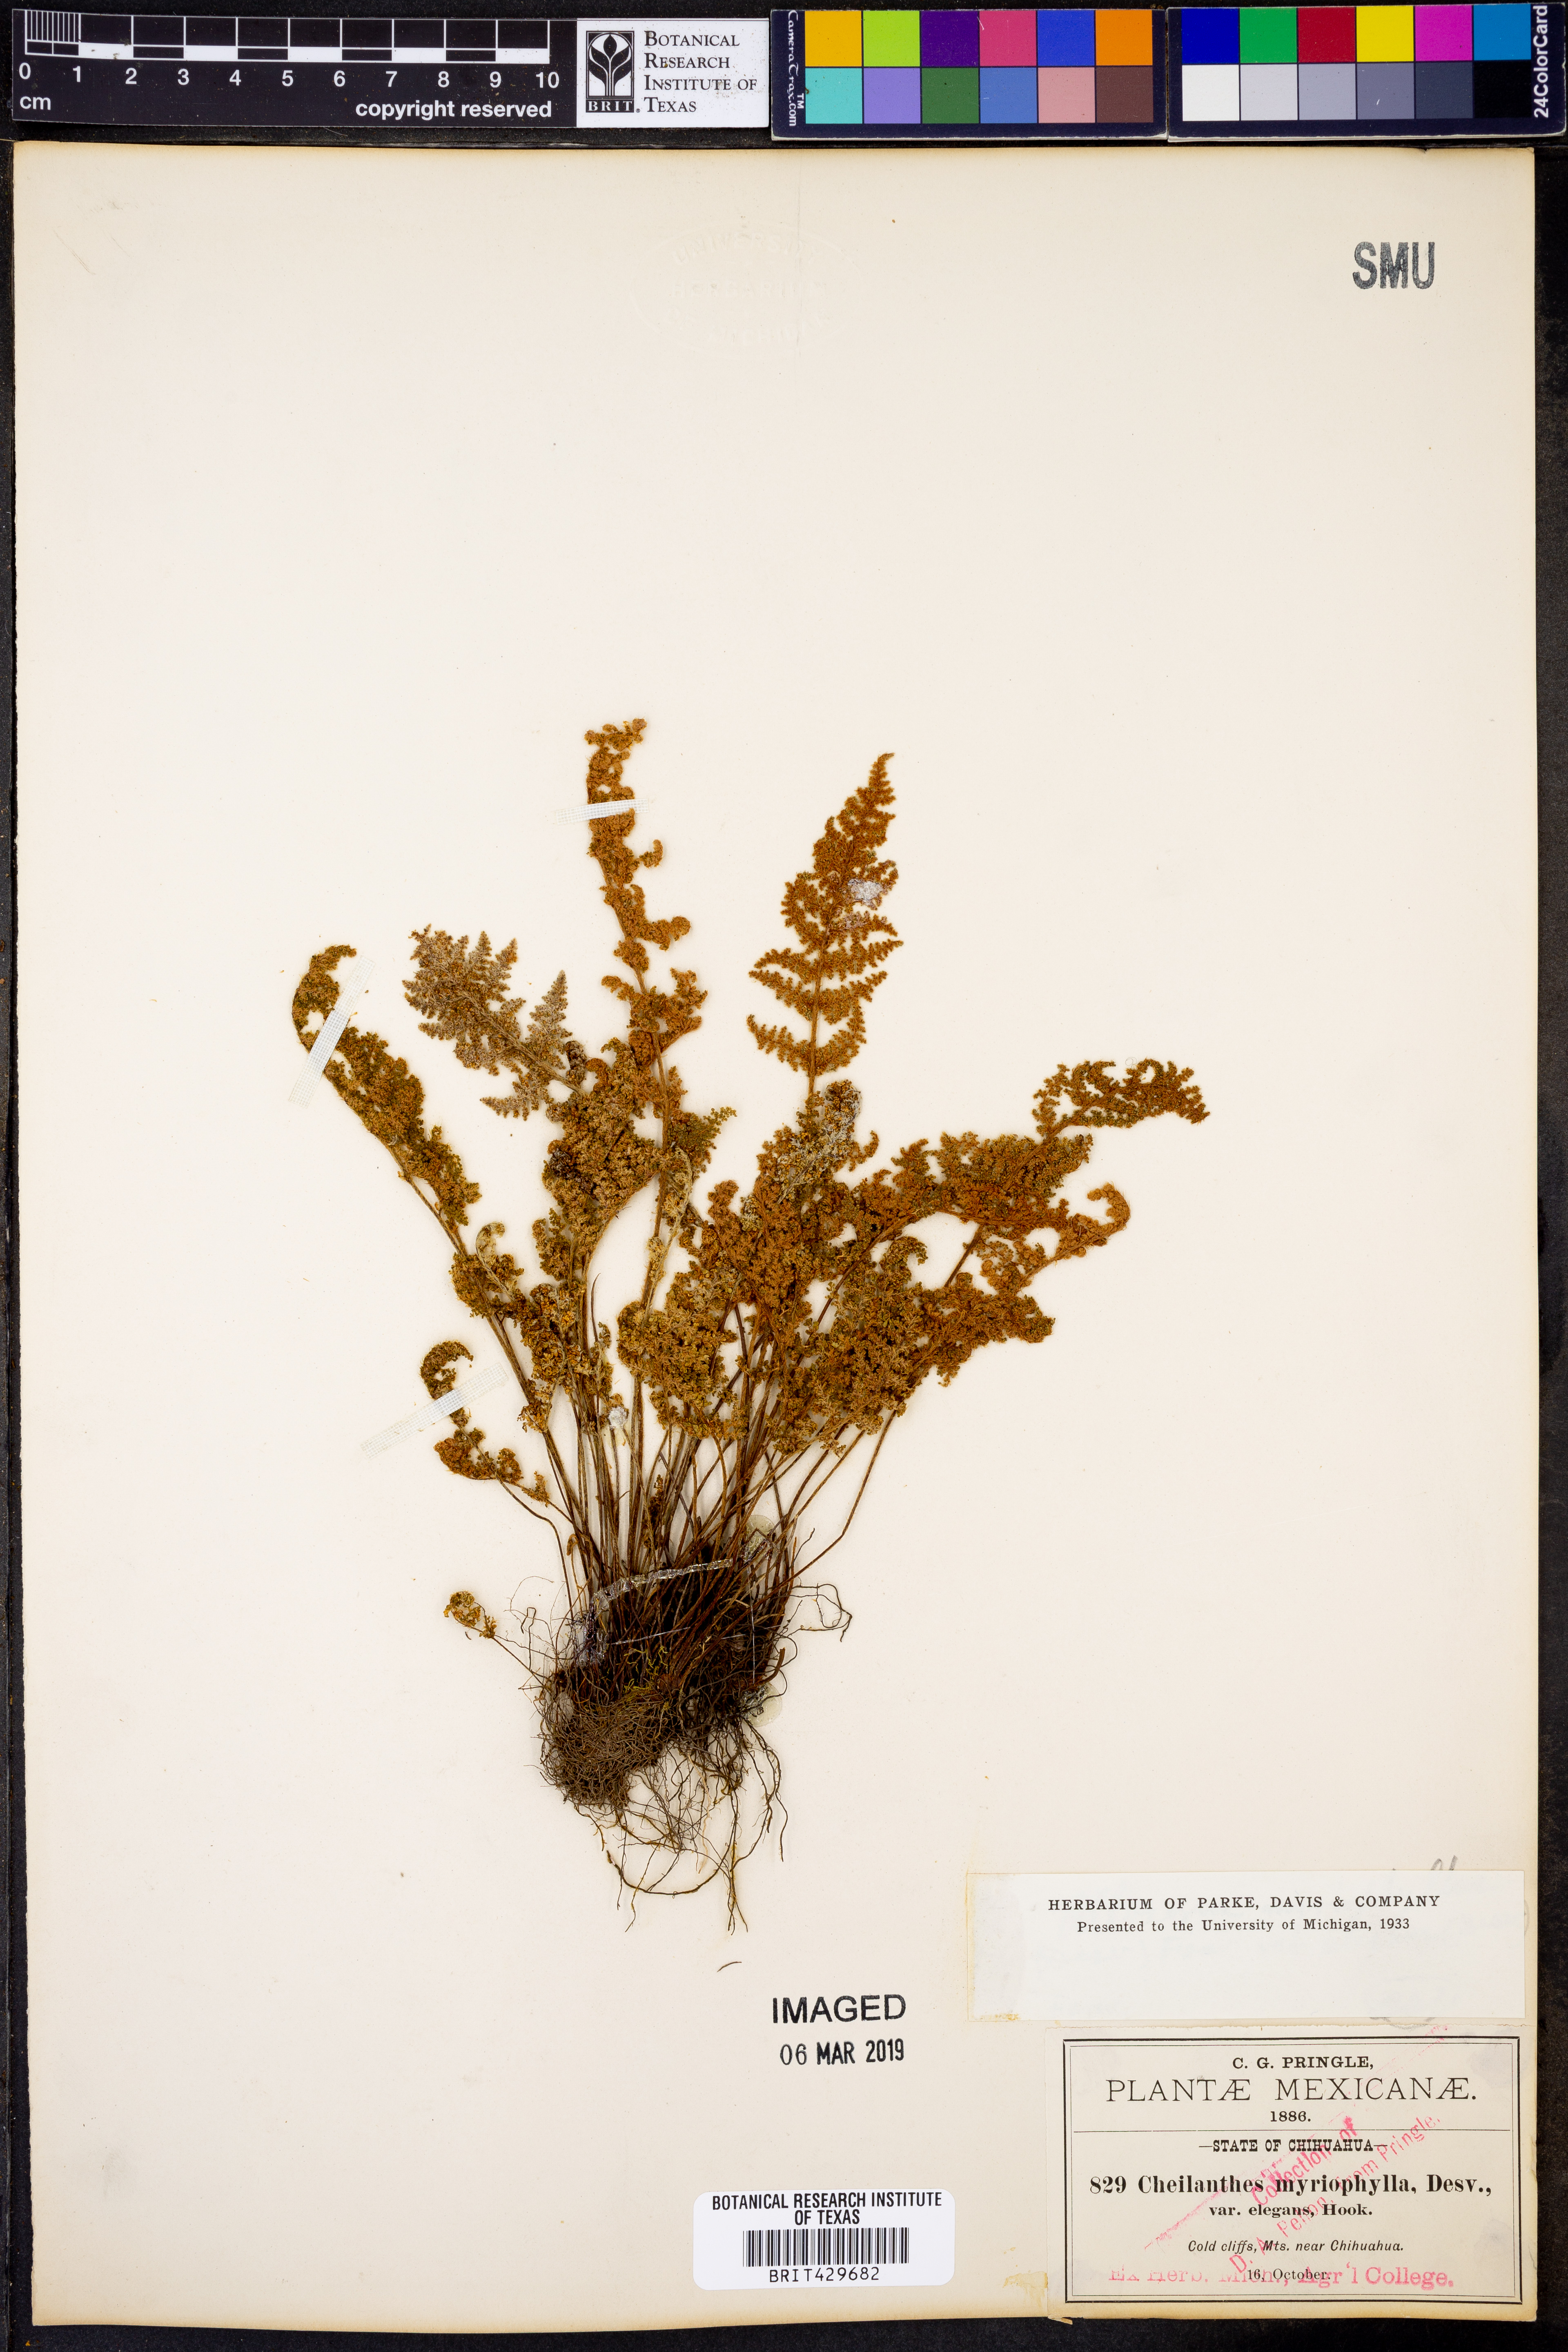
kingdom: Plantae
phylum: Tracheophyta
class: Polypodiopsida
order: Polypodiales
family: Pteridaceae
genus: Myriopteris
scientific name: Myriopteris myriophylla
